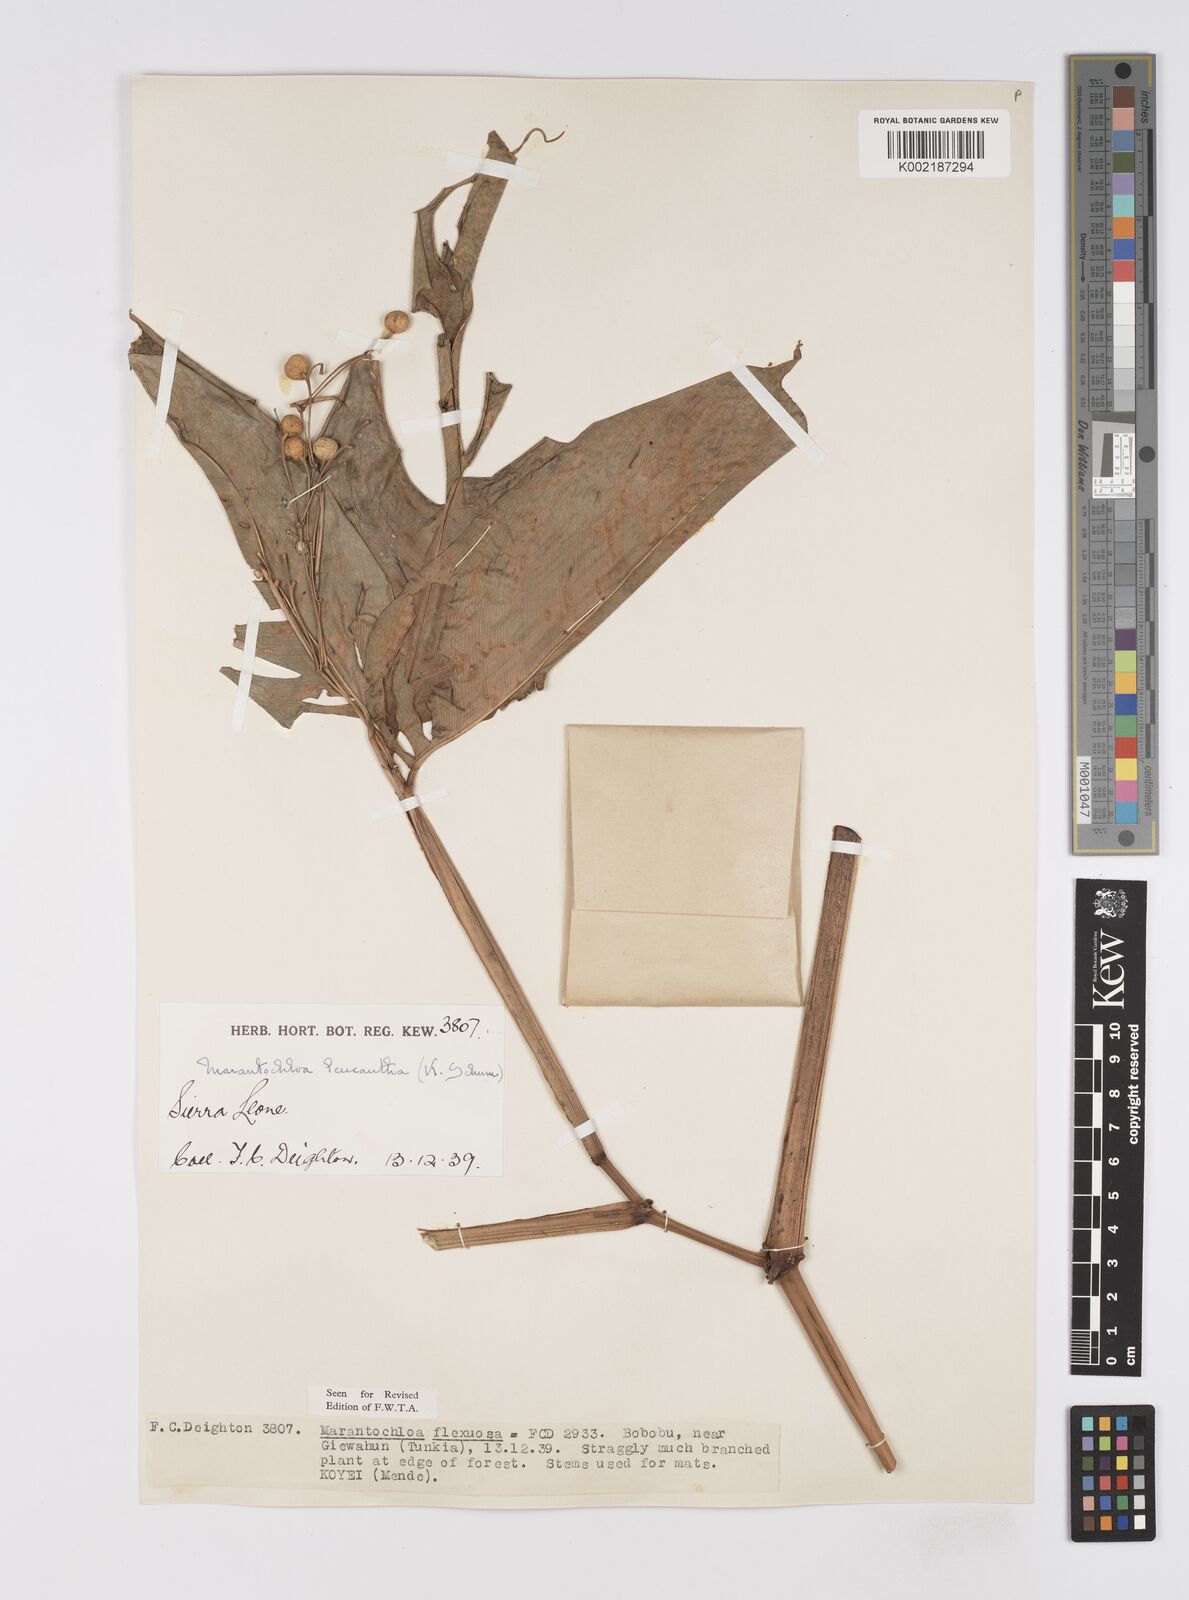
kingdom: Plantae
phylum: Tracheophyta
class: Liliopsida
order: Zingiberales
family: Marantaceae
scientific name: Marantaceae
